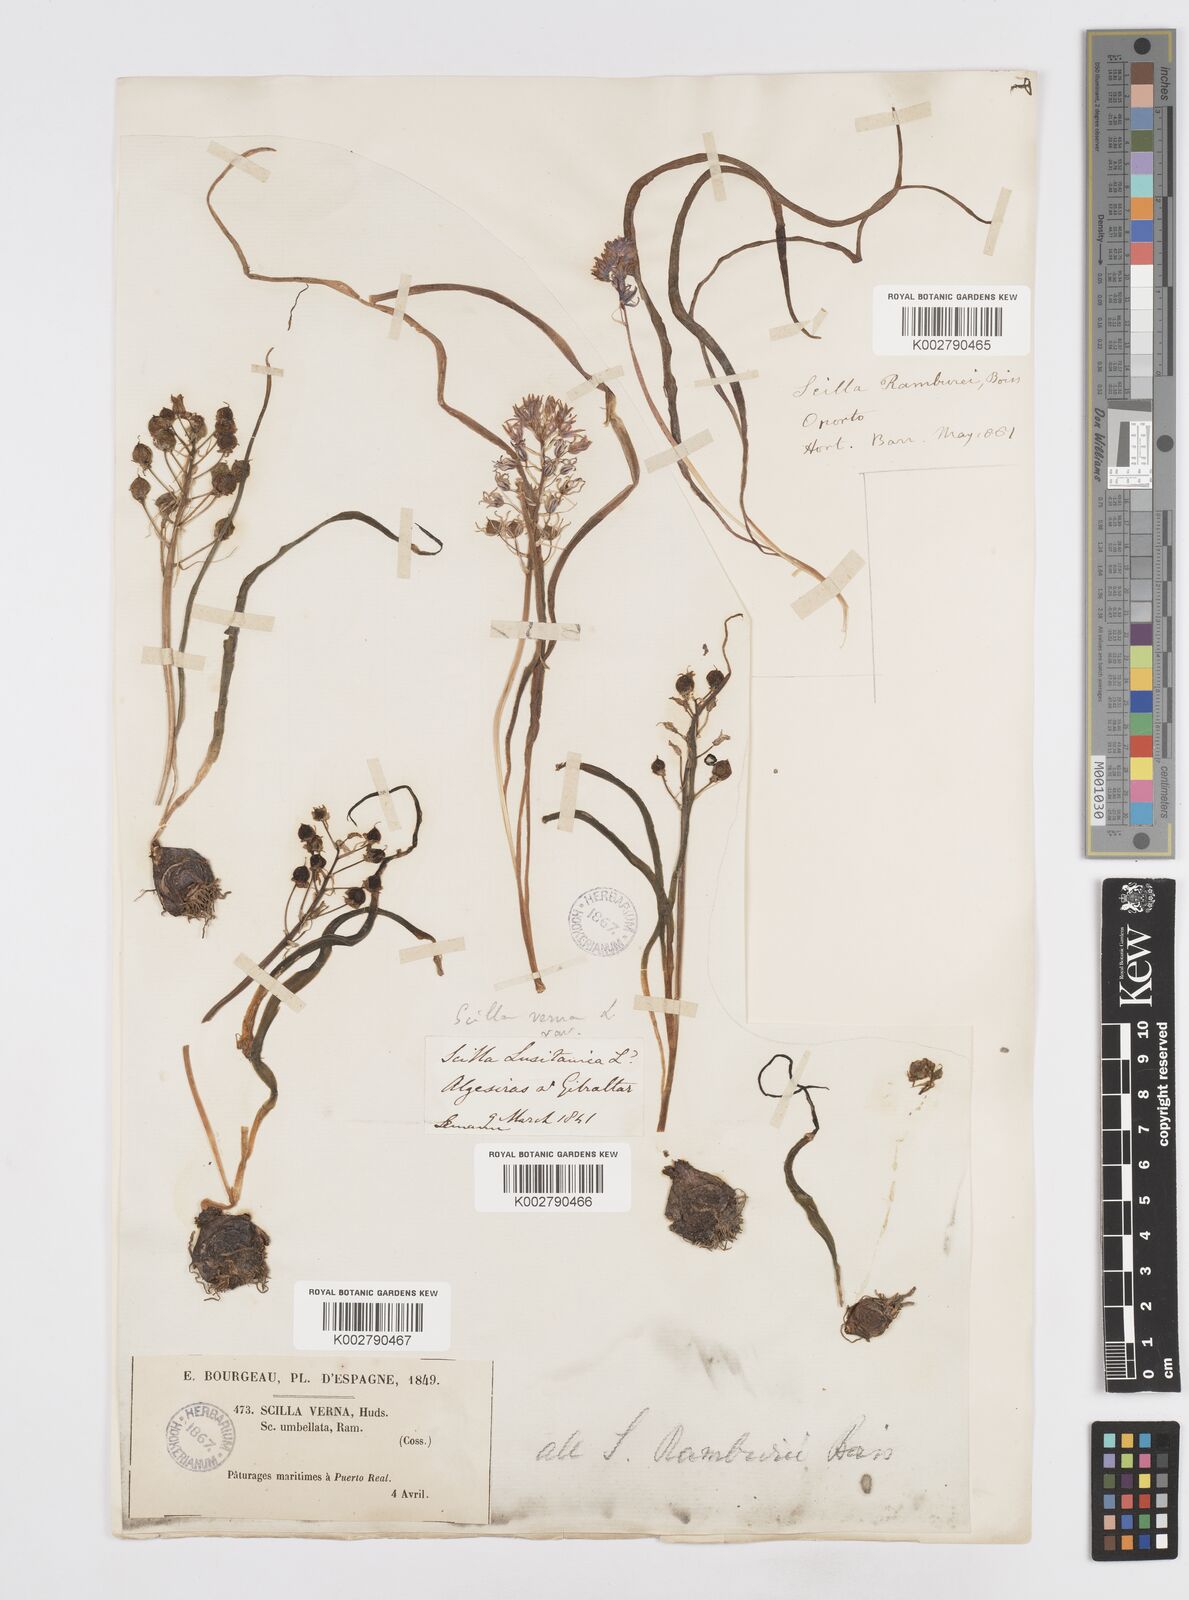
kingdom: Plantae
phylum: Tracheophyta
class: Liliopsida
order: Asparagales
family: Asparagaceae
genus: Scilla
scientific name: Scilla verna
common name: Spring squill
